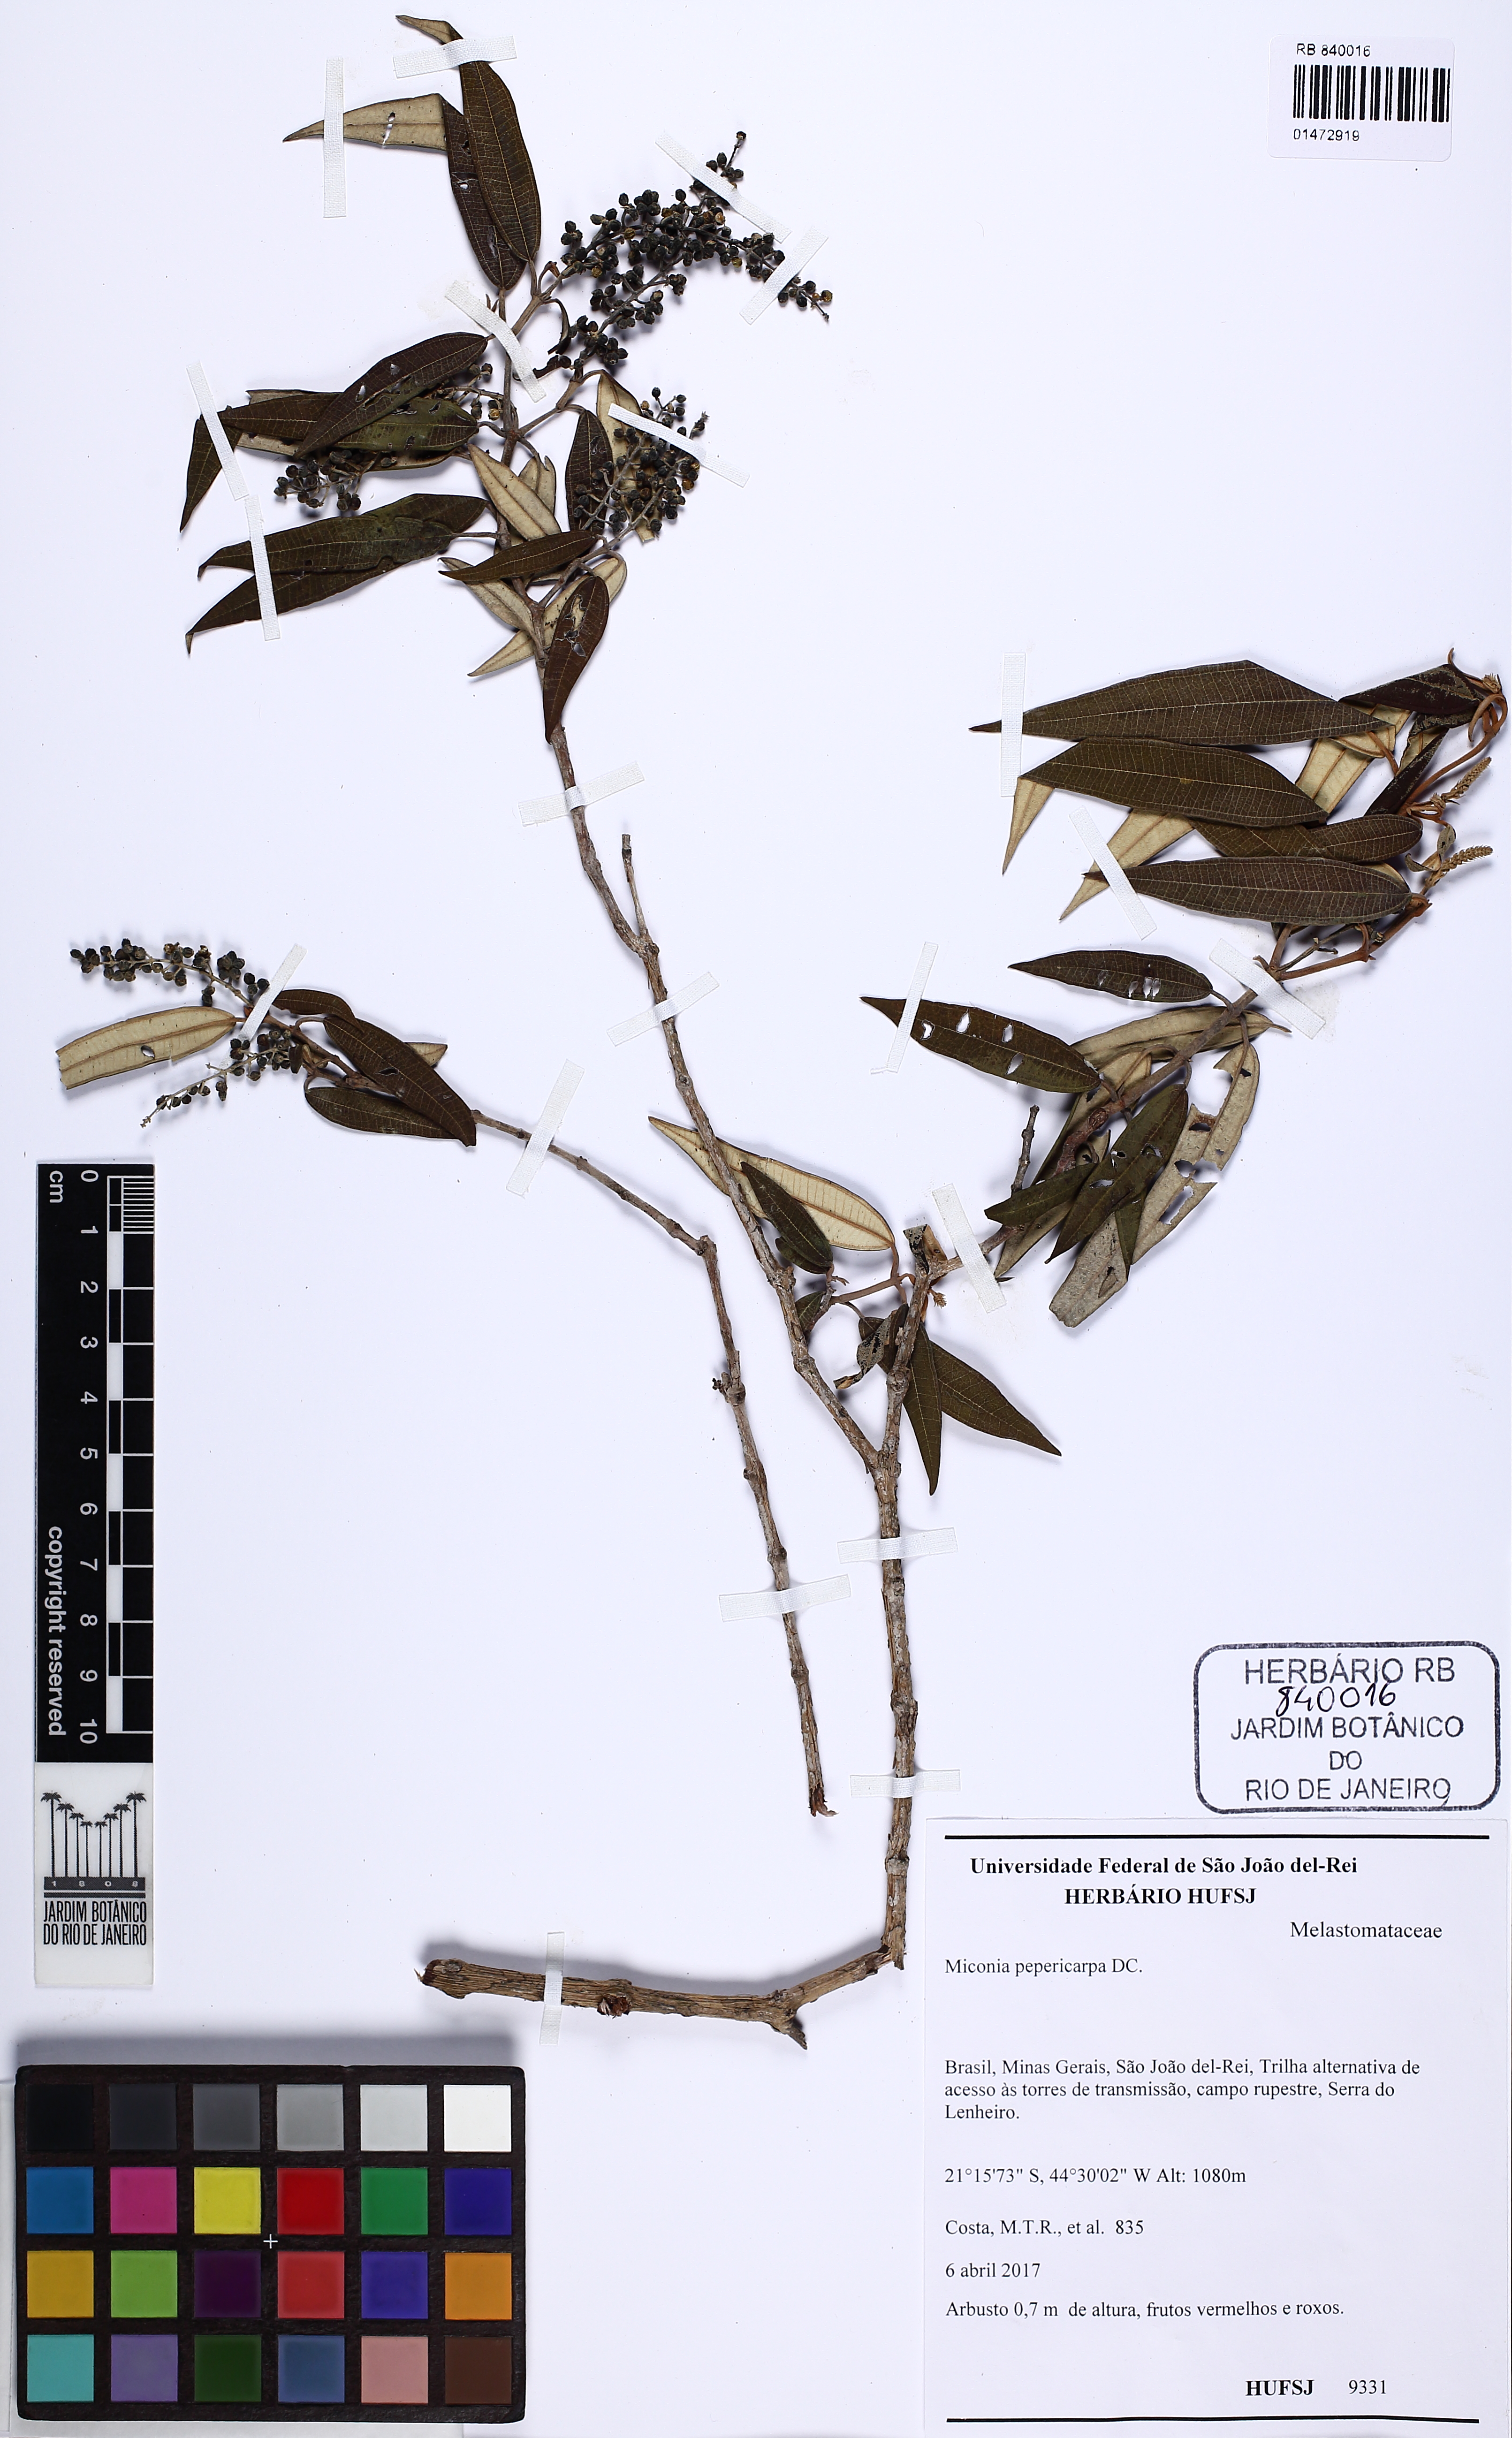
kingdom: Plantae
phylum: Tracheophyta
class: Magnoliopsida
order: Myrtales
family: Melastomataceae
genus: Miconia
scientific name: Miconia pepericarpa
